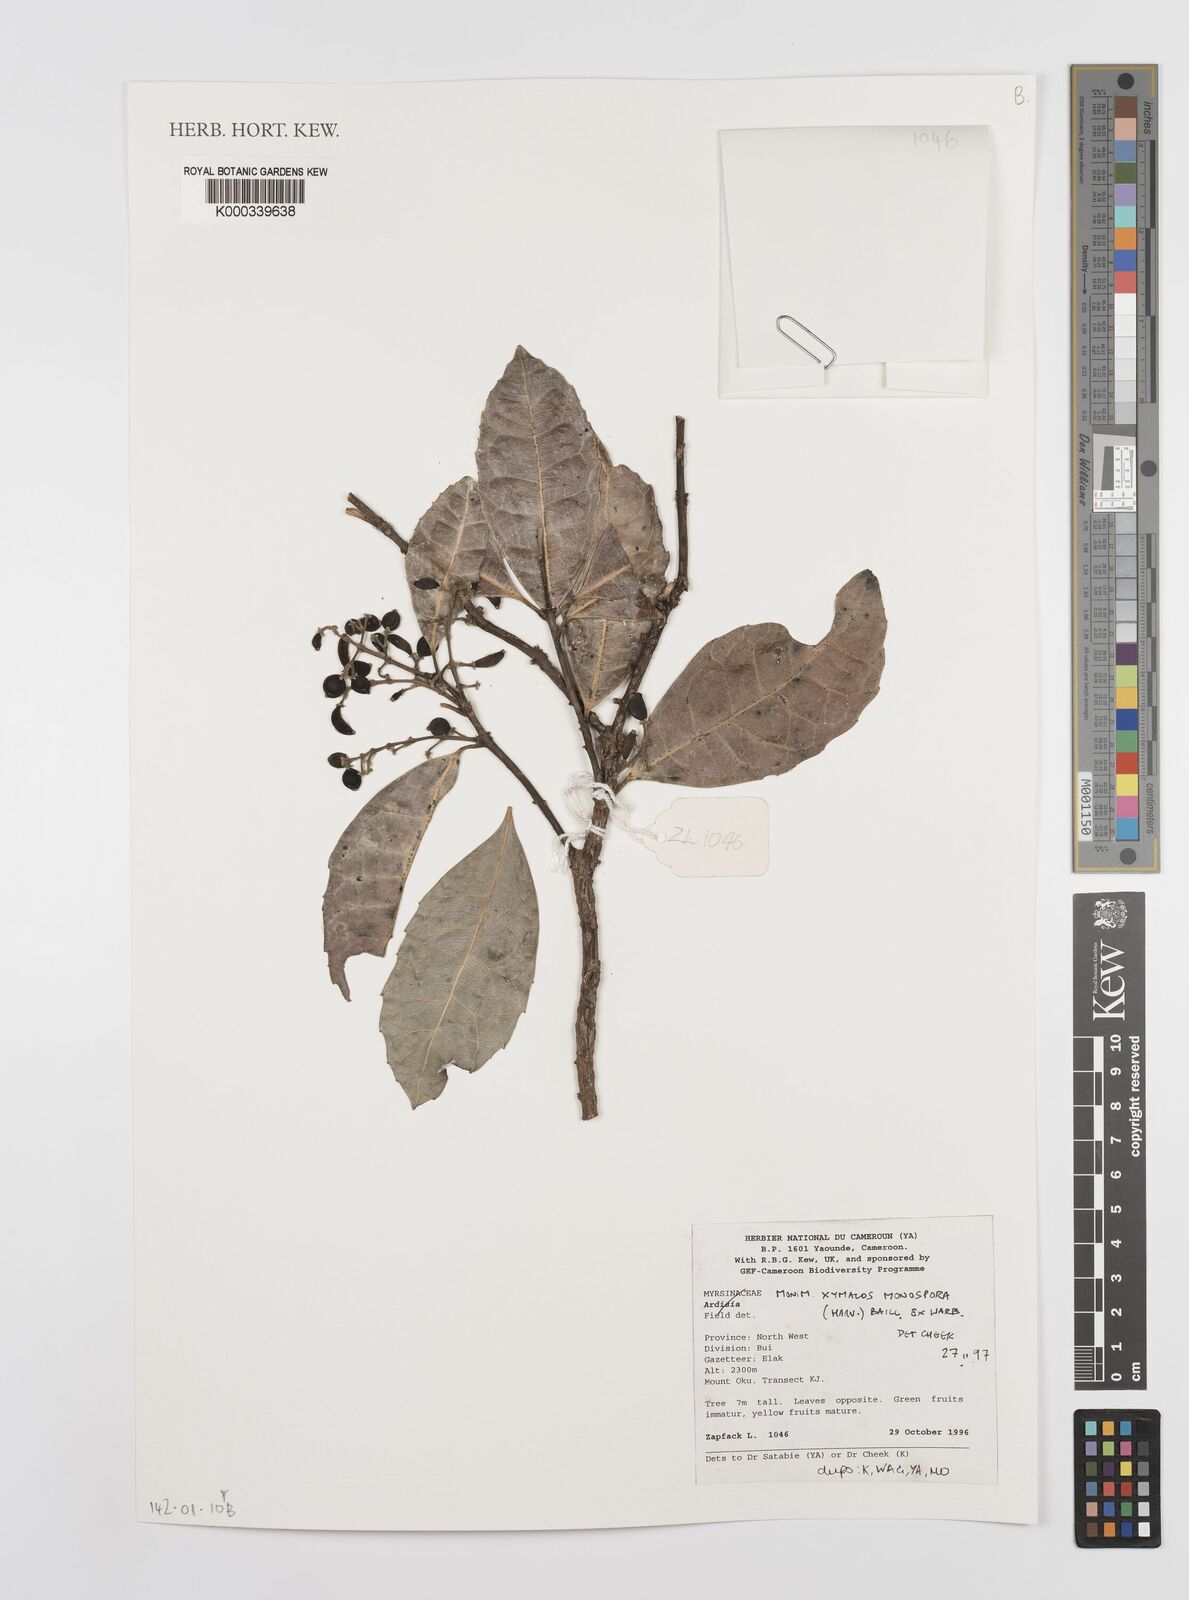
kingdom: Plantae
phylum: Tracheophyta
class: Magnoliopsida
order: Laurales
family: Monimiaceae
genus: Xymalos
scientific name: Xymalos
